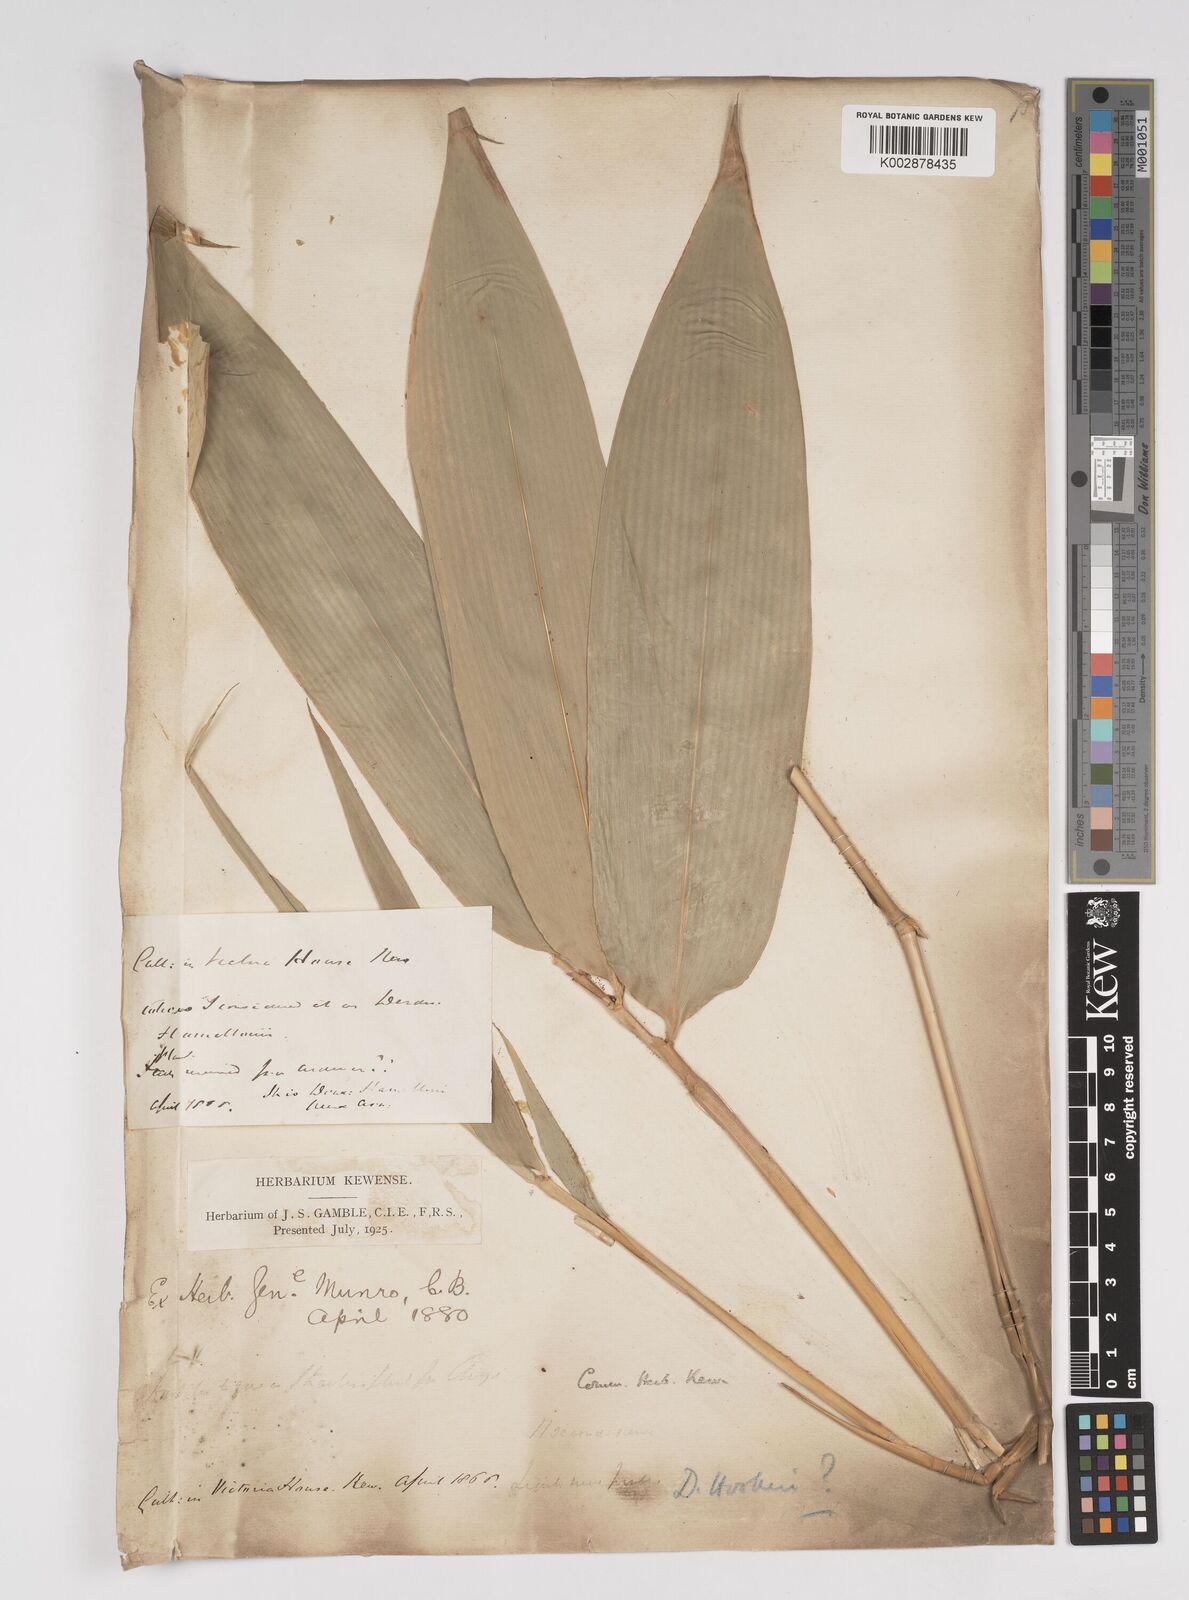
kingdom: Plantae
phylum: Tracheophyta
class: Liliopsida
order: Poales
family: Poaceae
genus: Dendrocalamus
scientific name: Dendrocalamus hookeri
